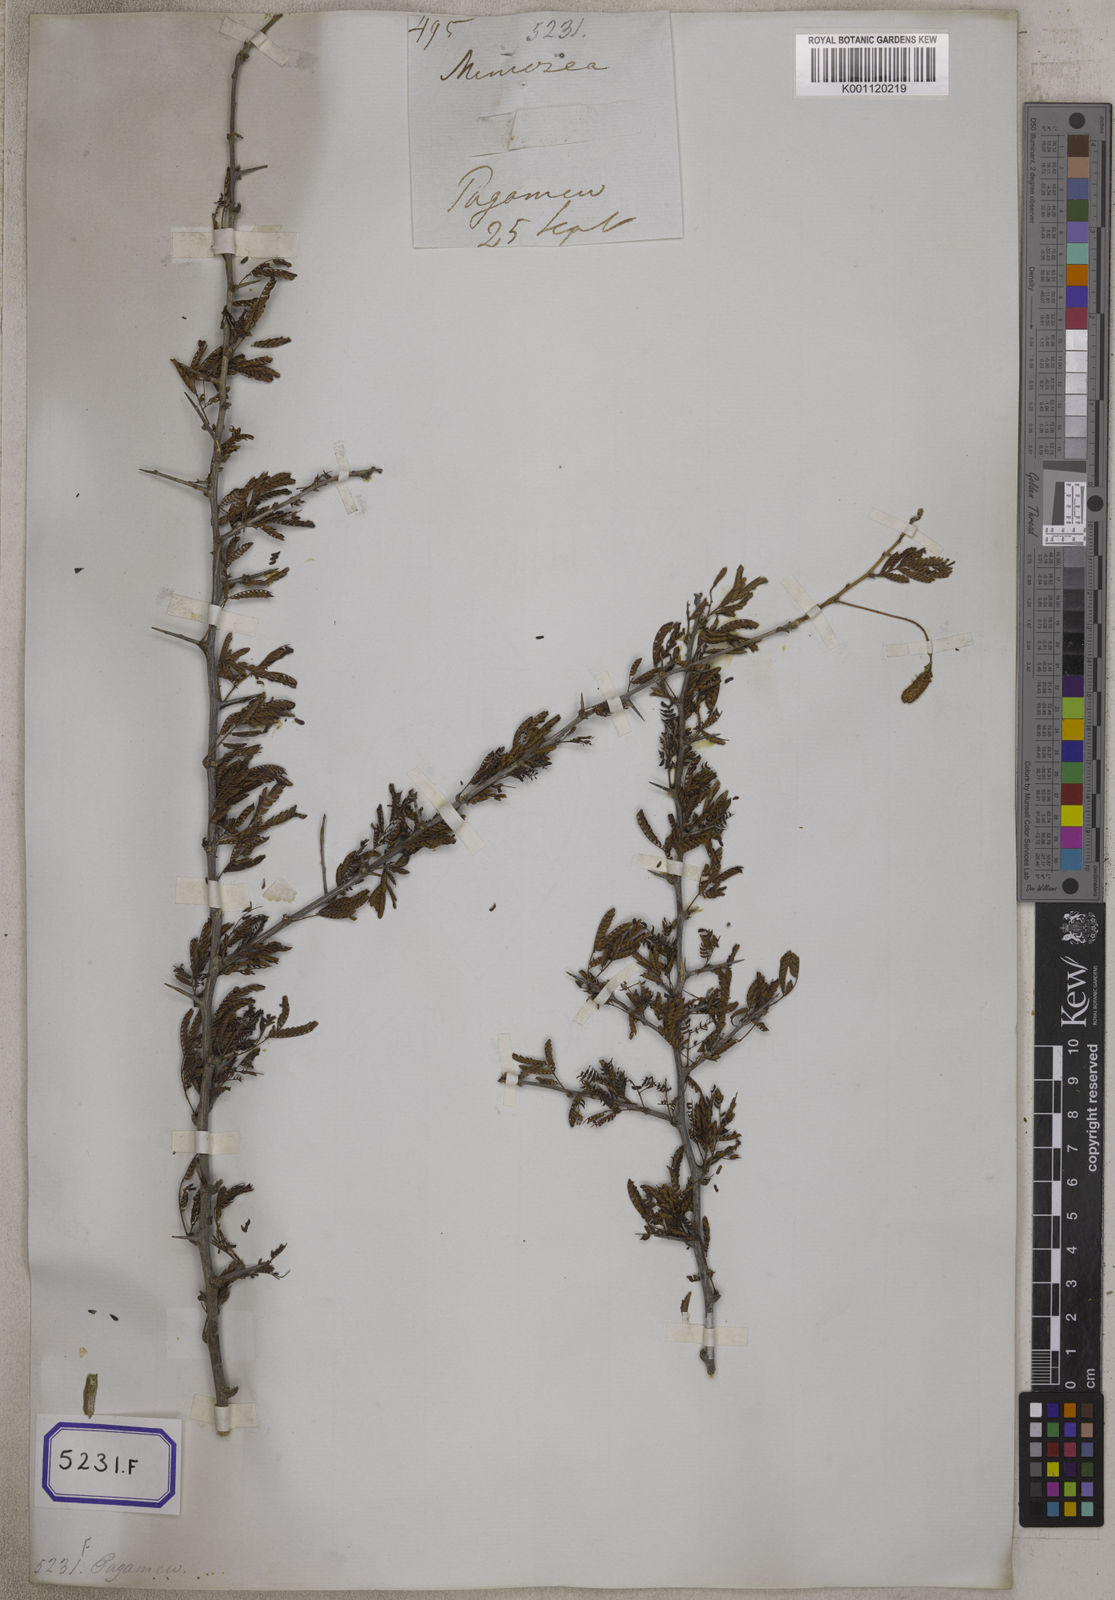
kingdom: Plantae
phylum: Tracheophyta
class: Magnoliopsida
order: Fabales
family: Fabaceae
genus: Dichrostachys
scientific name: Dichrostachys cinerea
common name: Sicklebush
